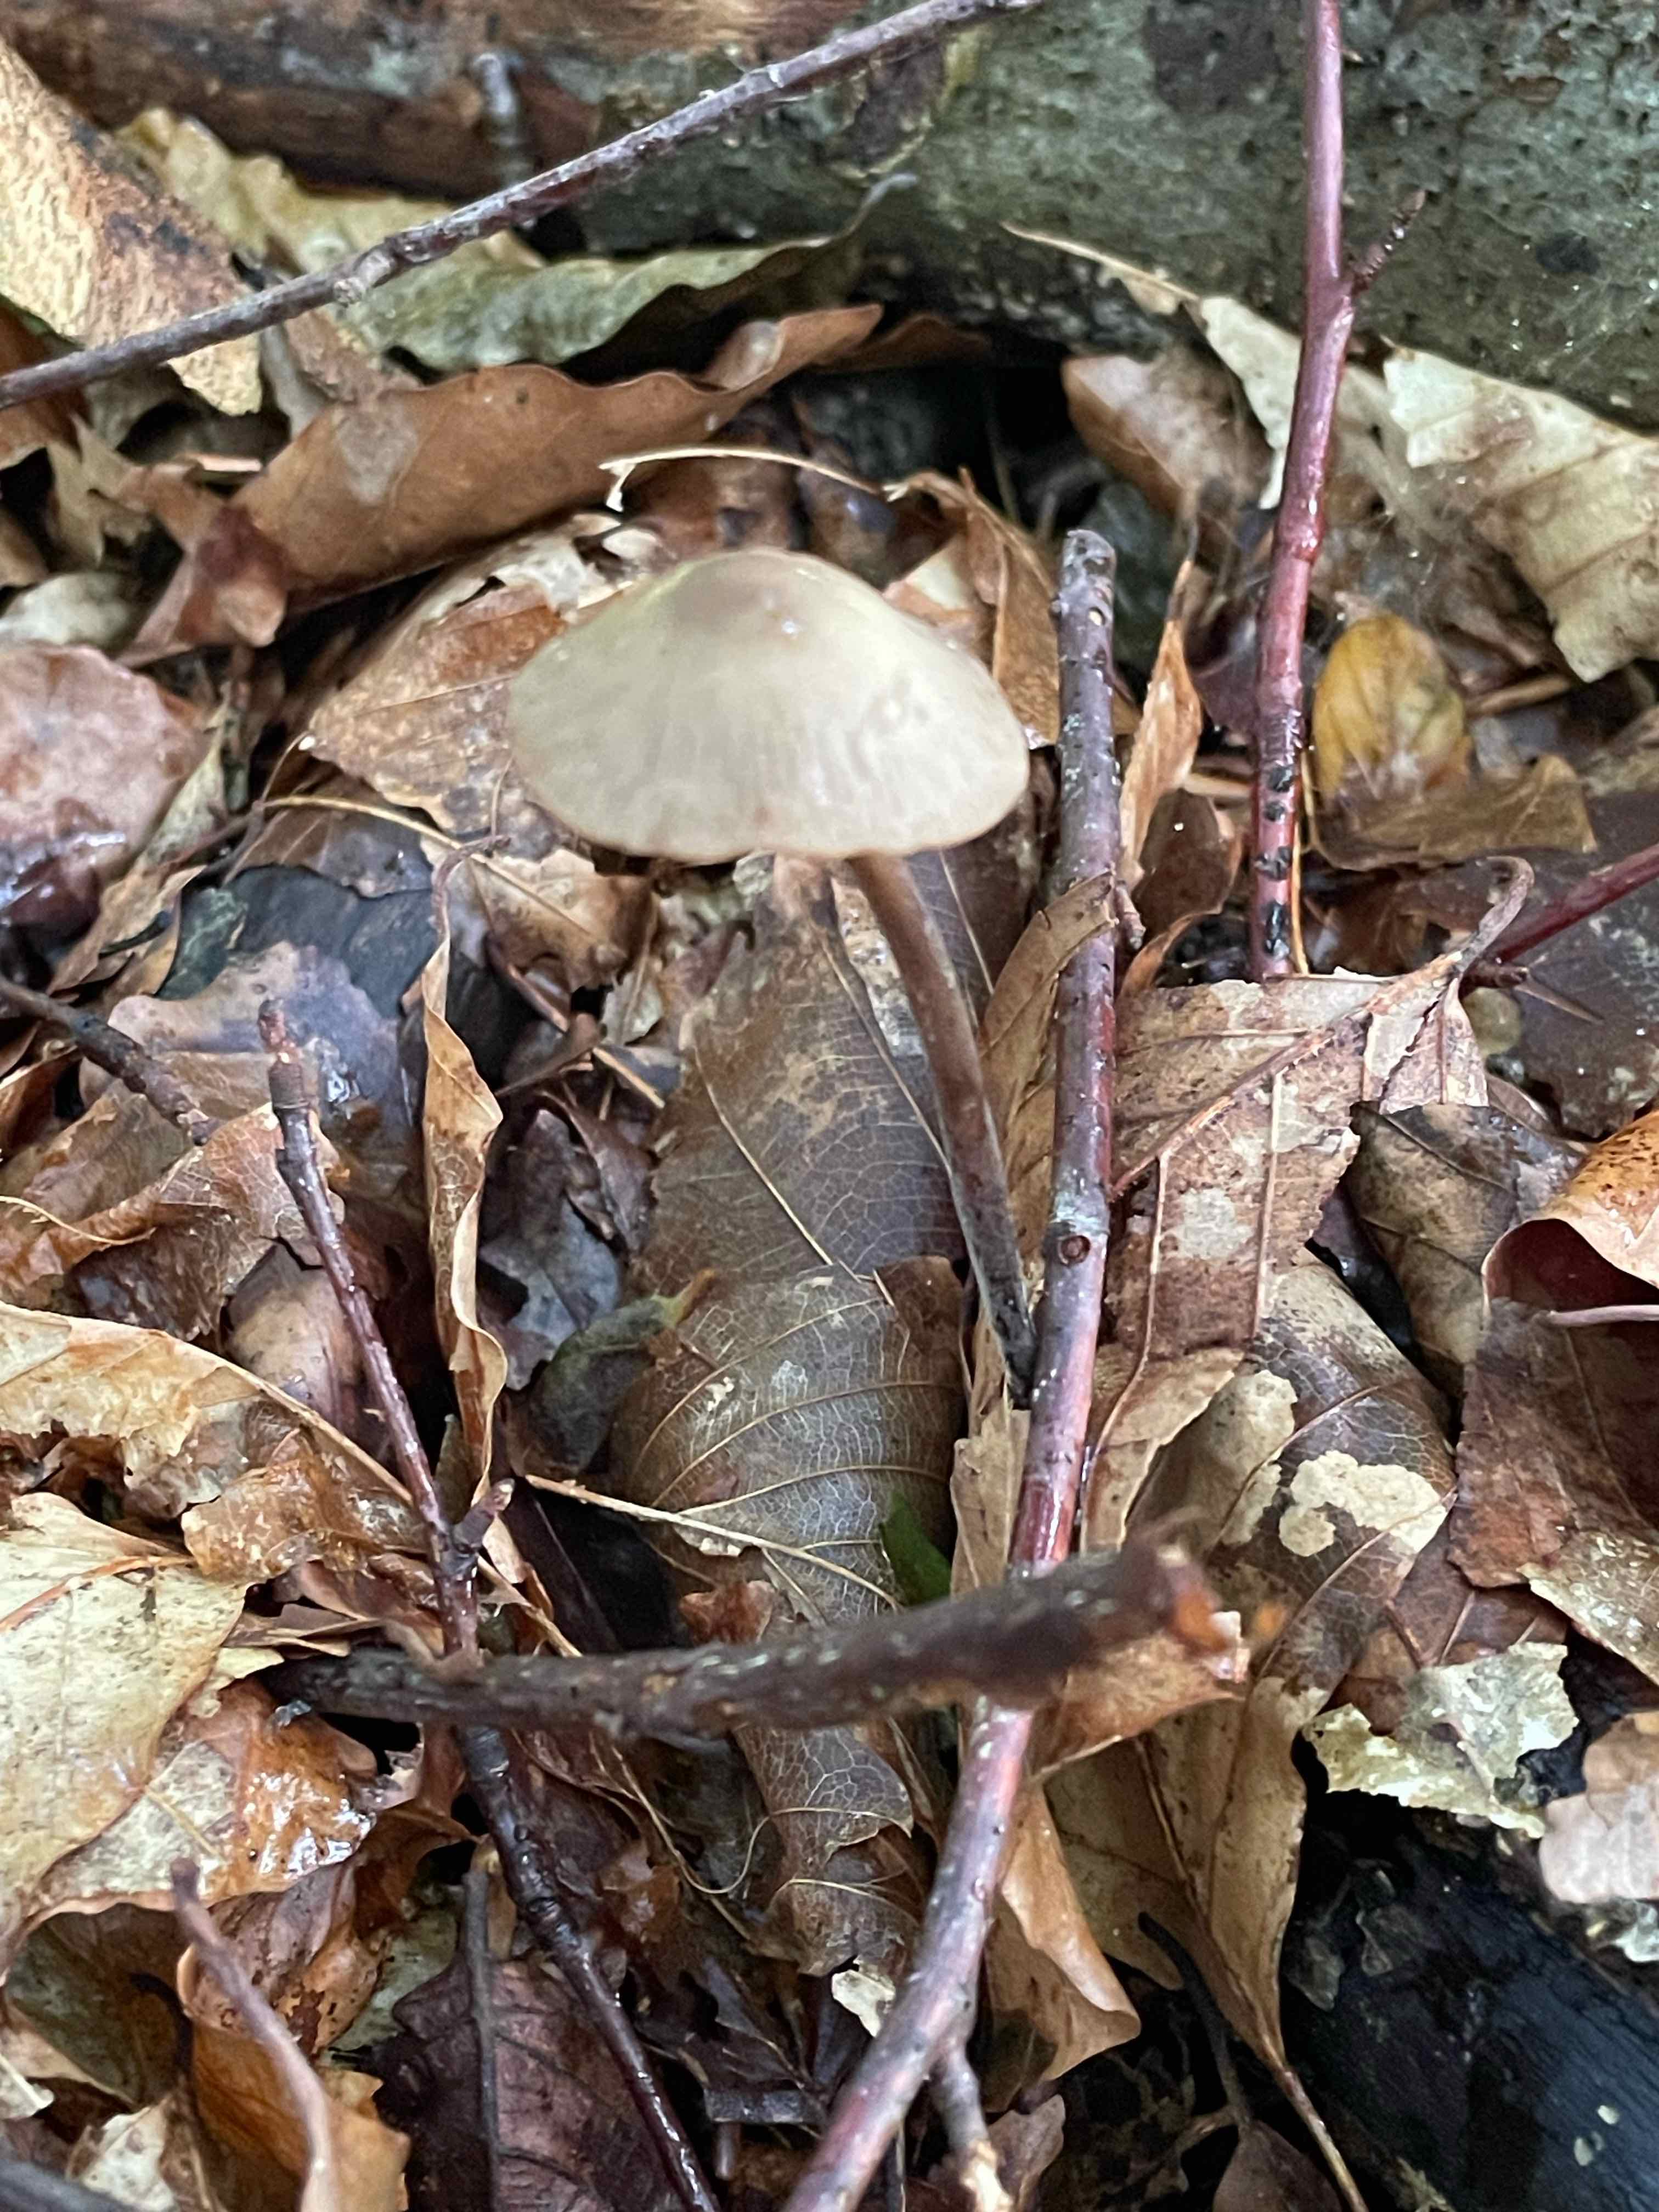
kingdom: Fungi
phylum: Basidiomycota
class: Agaricomycetes
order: Agaricales
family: Omphalotaceae
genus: Mycetinis
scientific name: Mycetinis alliaceus
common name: stor løghat
